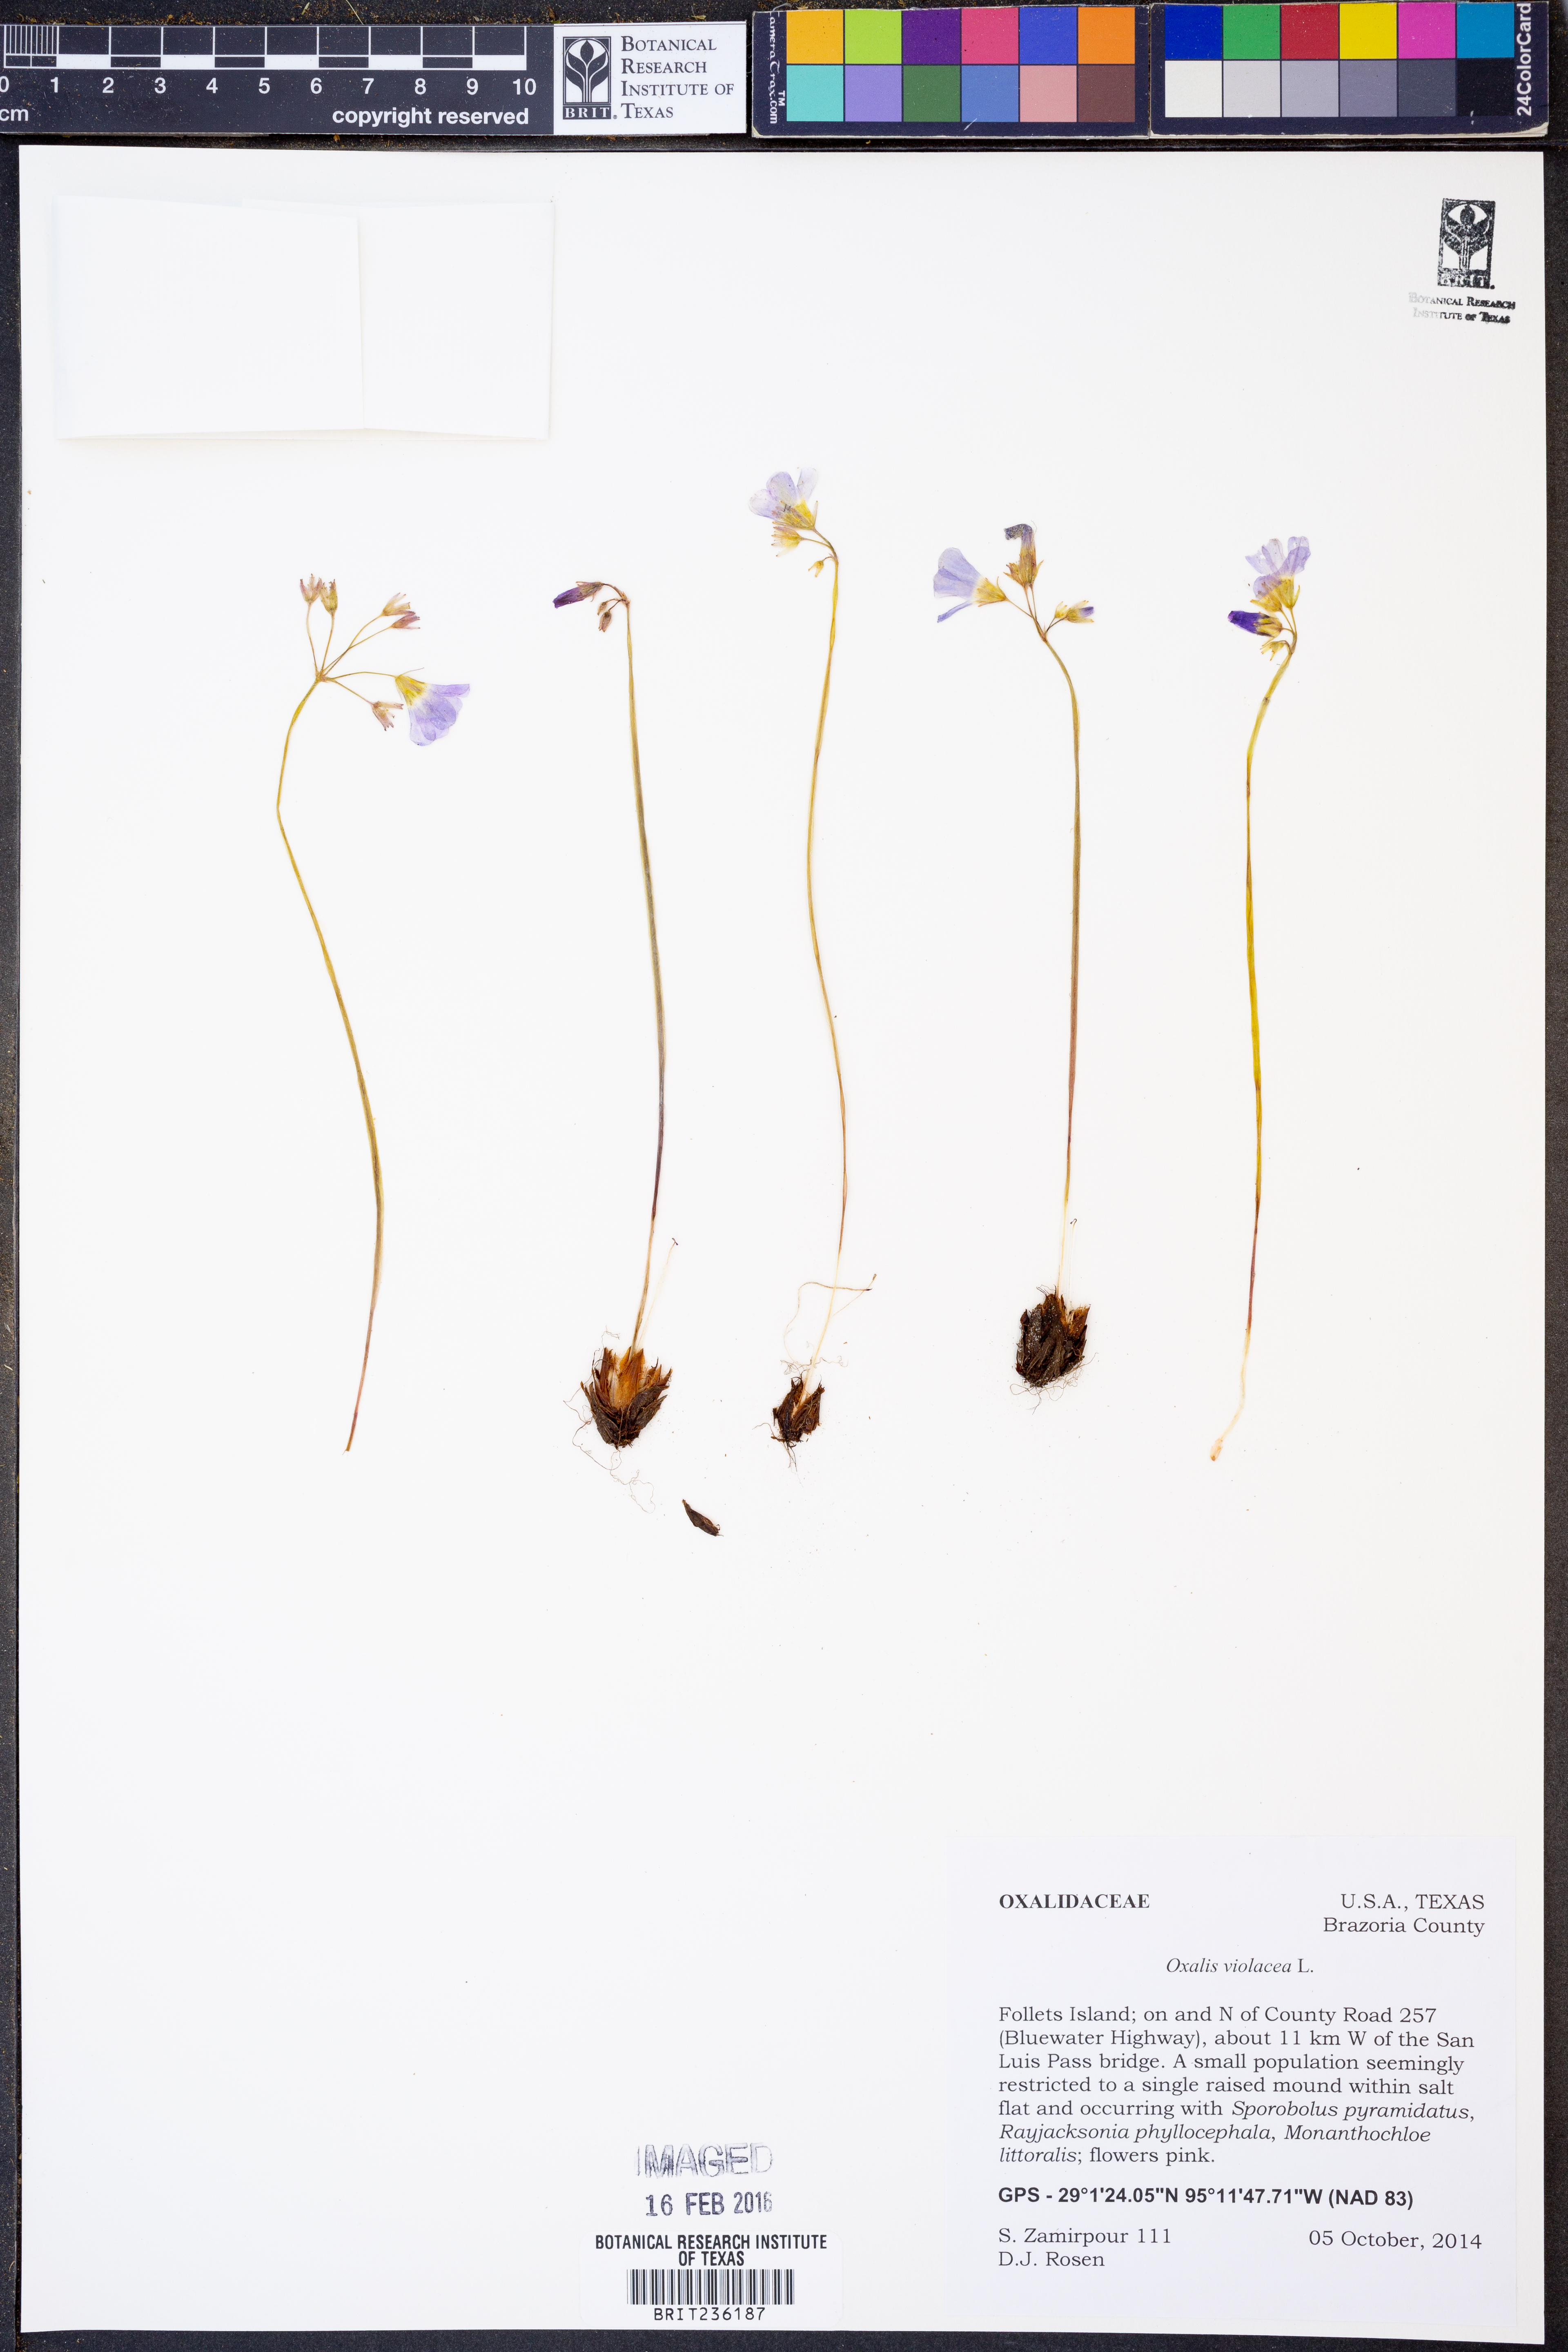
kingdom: Plantae
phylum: Tracheophyta
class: Magnoliopsida
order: Oxalidales
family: Oxalidaceae
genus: Oxalis
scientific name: Oxalis violacea
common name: Violet wood-sorrel
